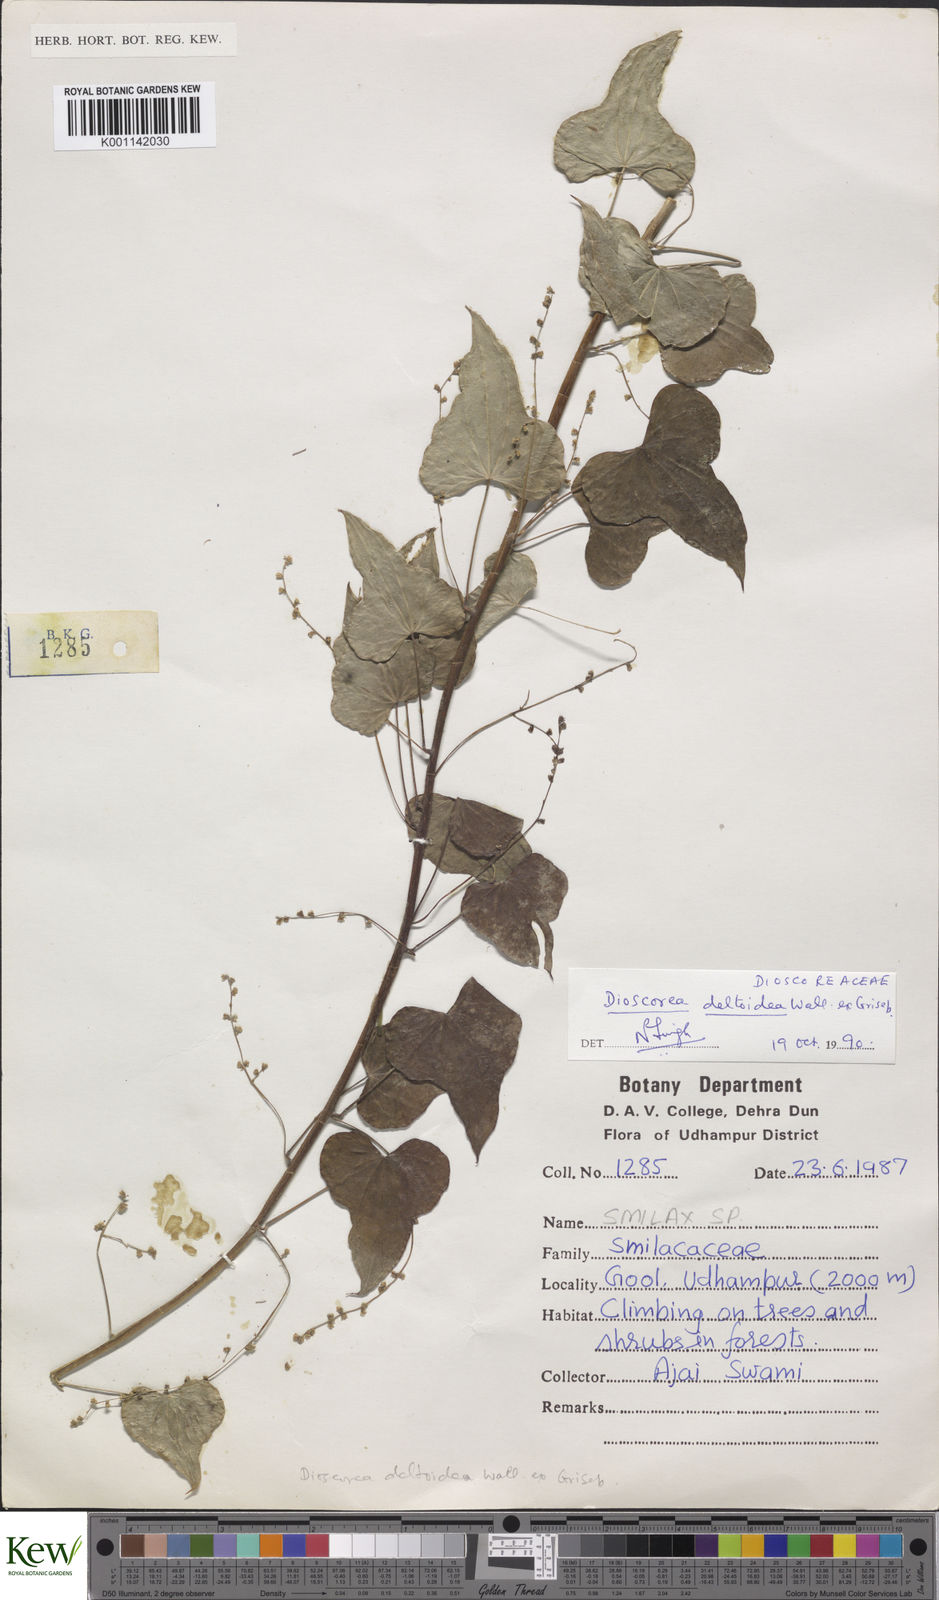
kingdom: Plantae
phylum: Tracheophyta
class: Liliopsida
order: Dioscoreales
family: Dioscoreaceae
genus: Dioscorea
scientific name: Dioscorea deltoidea
